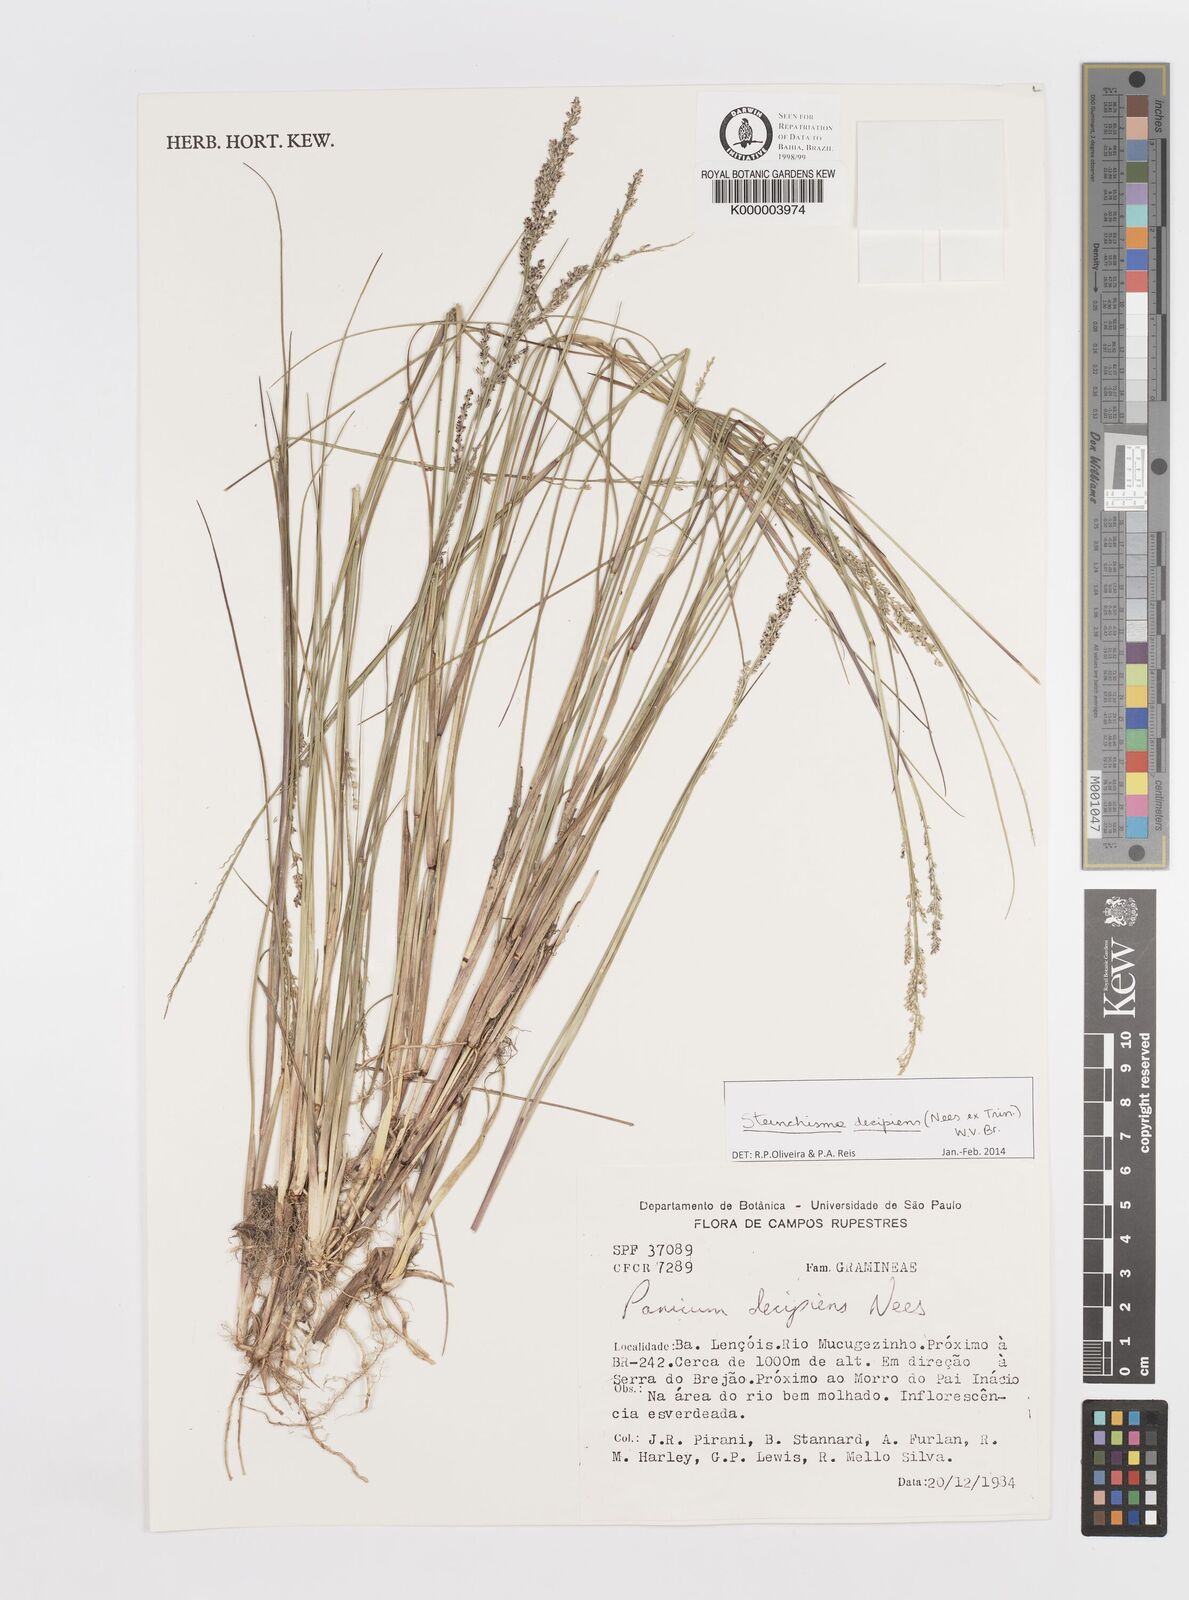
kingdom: Plantae
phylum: Tracheophyta
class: Liliopsida
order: Poales
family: Poaceae
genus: Lasiacis
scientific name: Lasiacis
